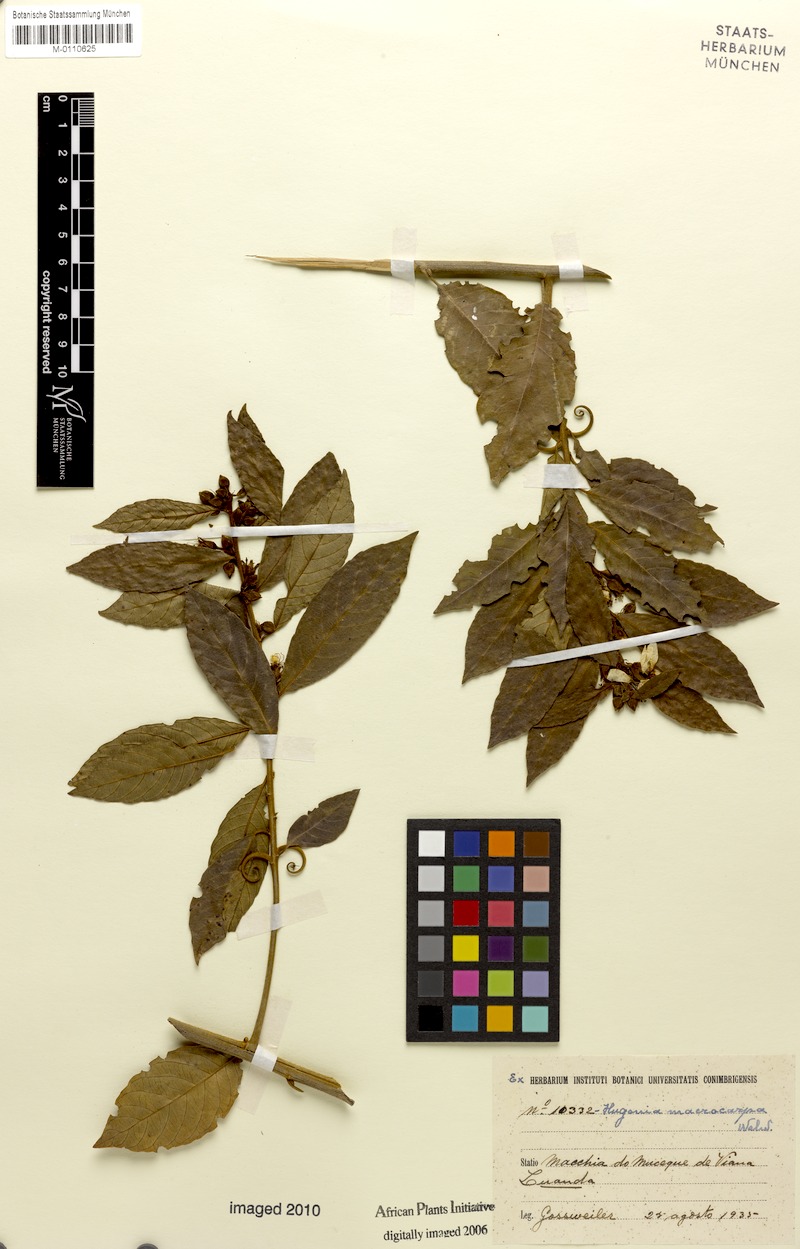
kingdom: Plantae
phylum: Tracheophyta
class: Magnoliopsida
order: Malpighiales
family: Linaceae
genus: Hugonia
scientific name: Hugonia macrocarpa
